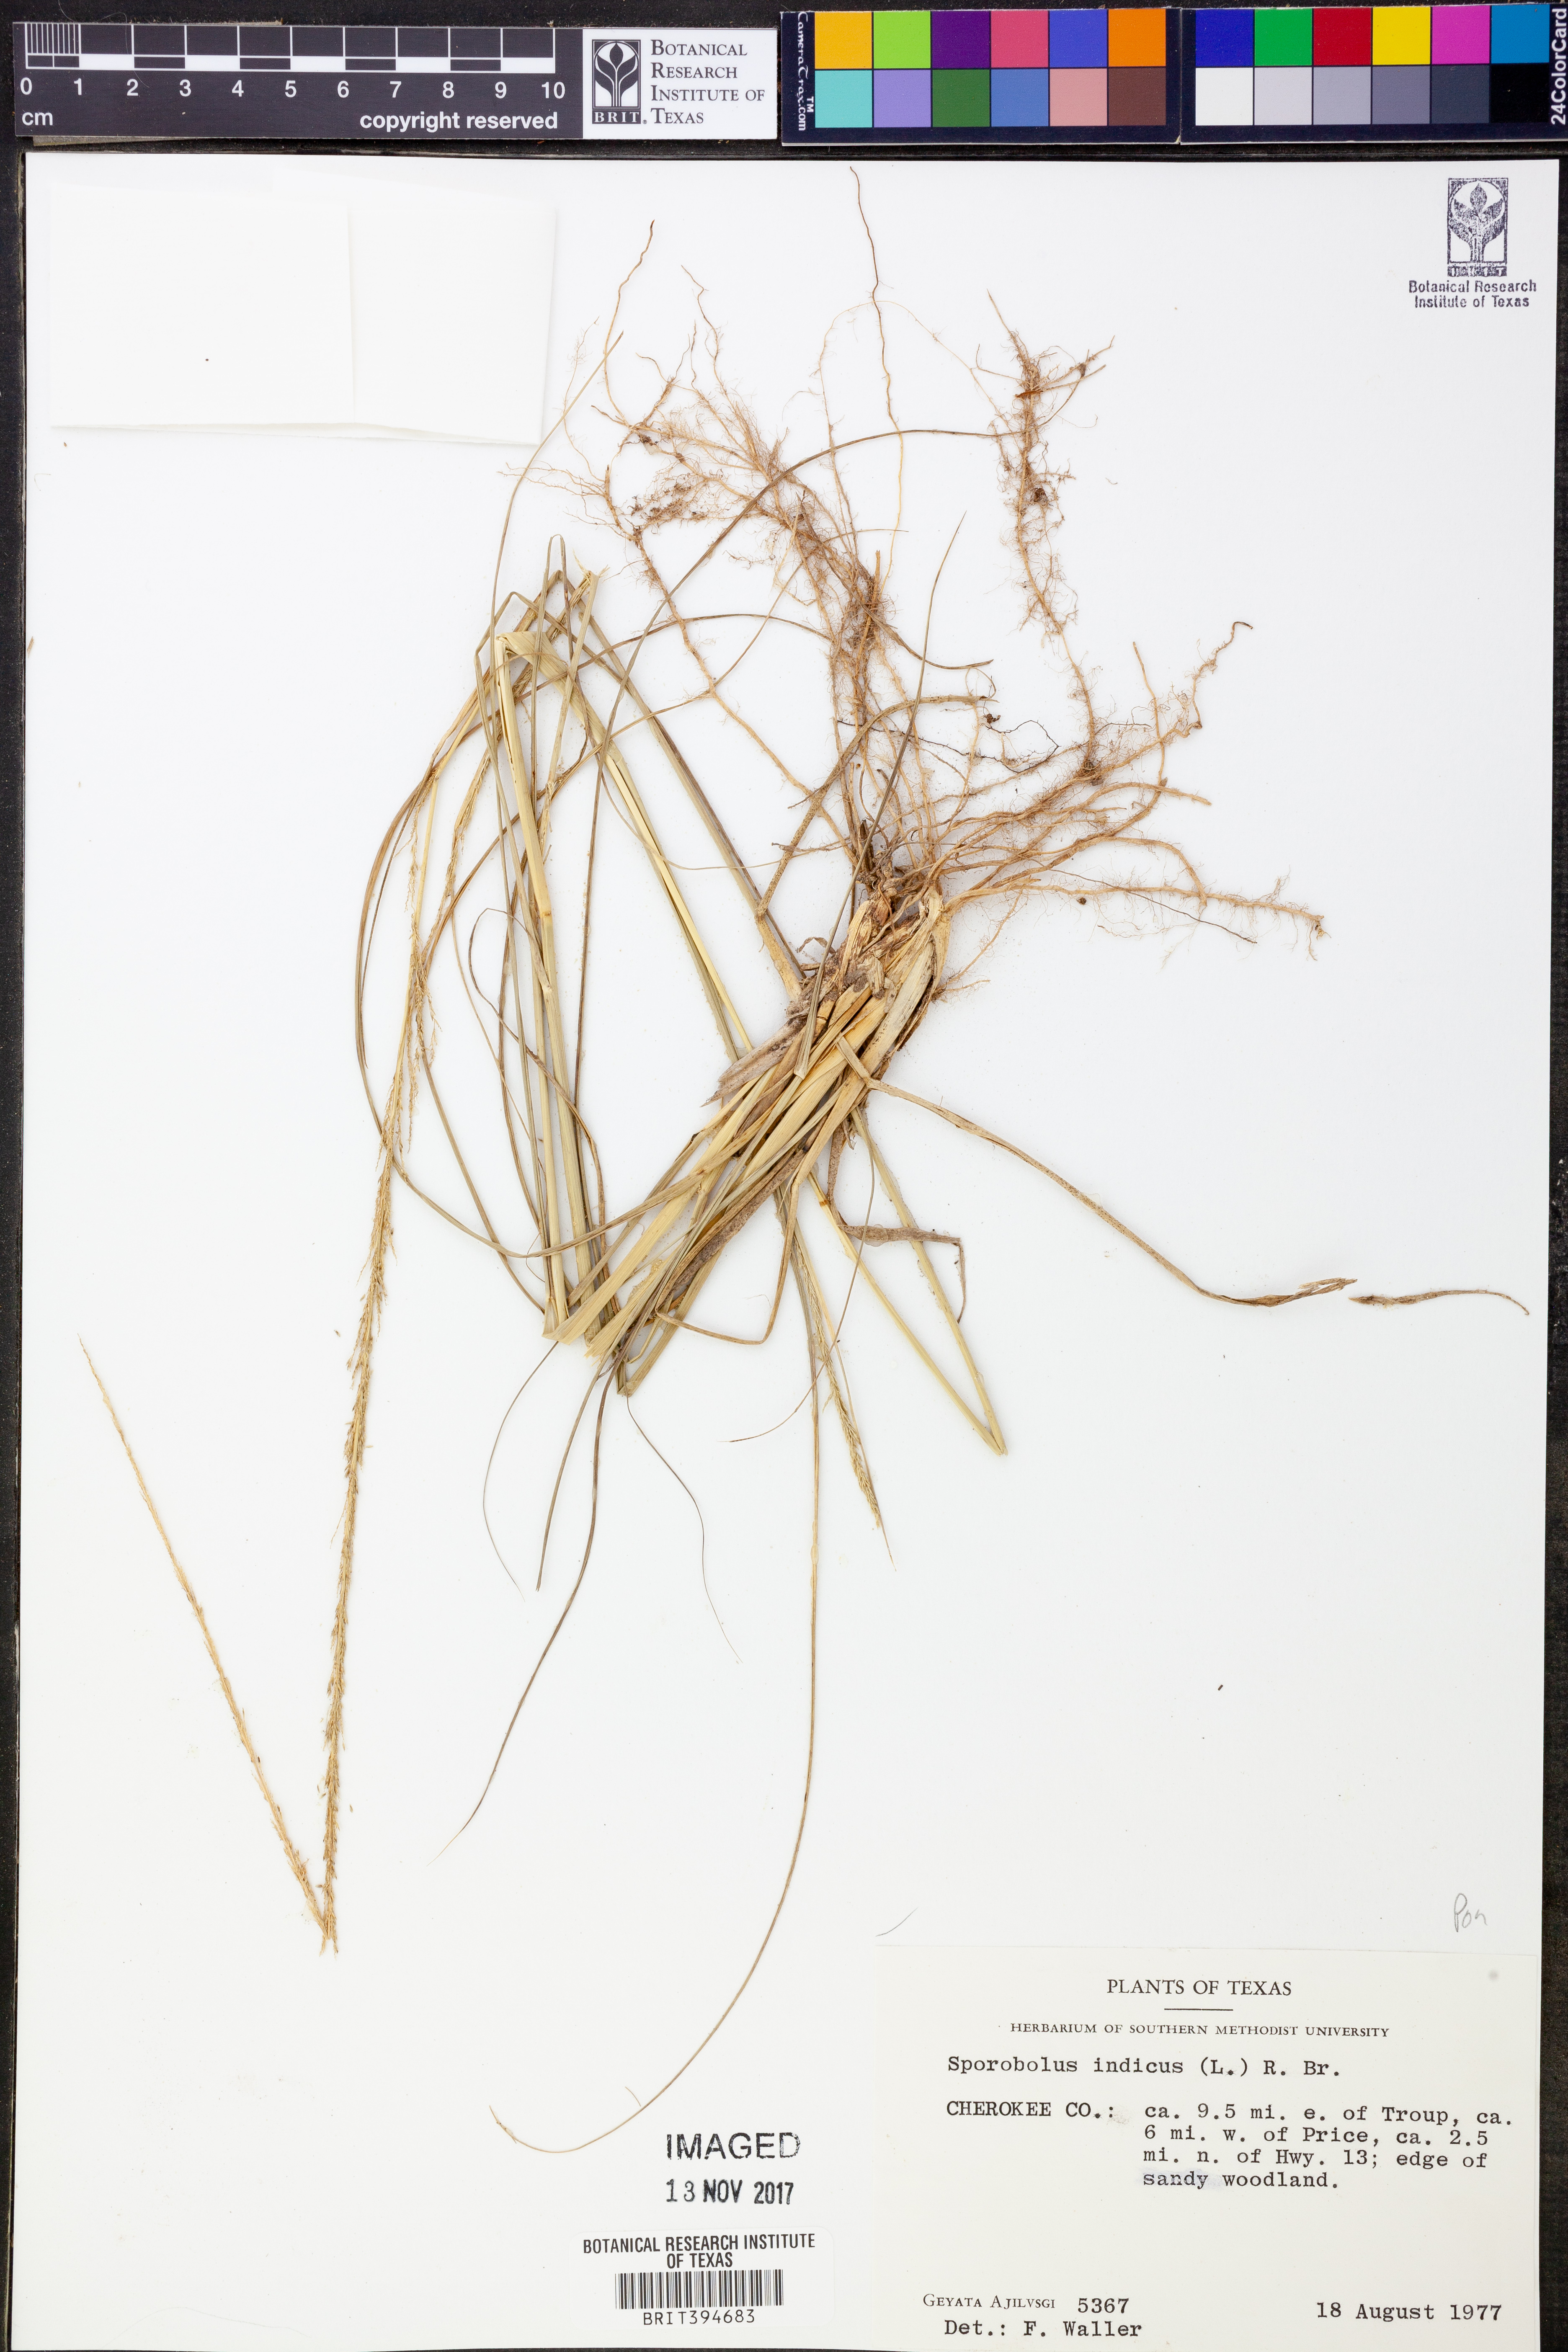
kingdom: Plantae
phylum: Tracheophyta
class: Liliopsida
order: Poales
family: Poaceae
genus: Sporobolus
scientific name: Sporobolus indicus
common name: Smut grass
